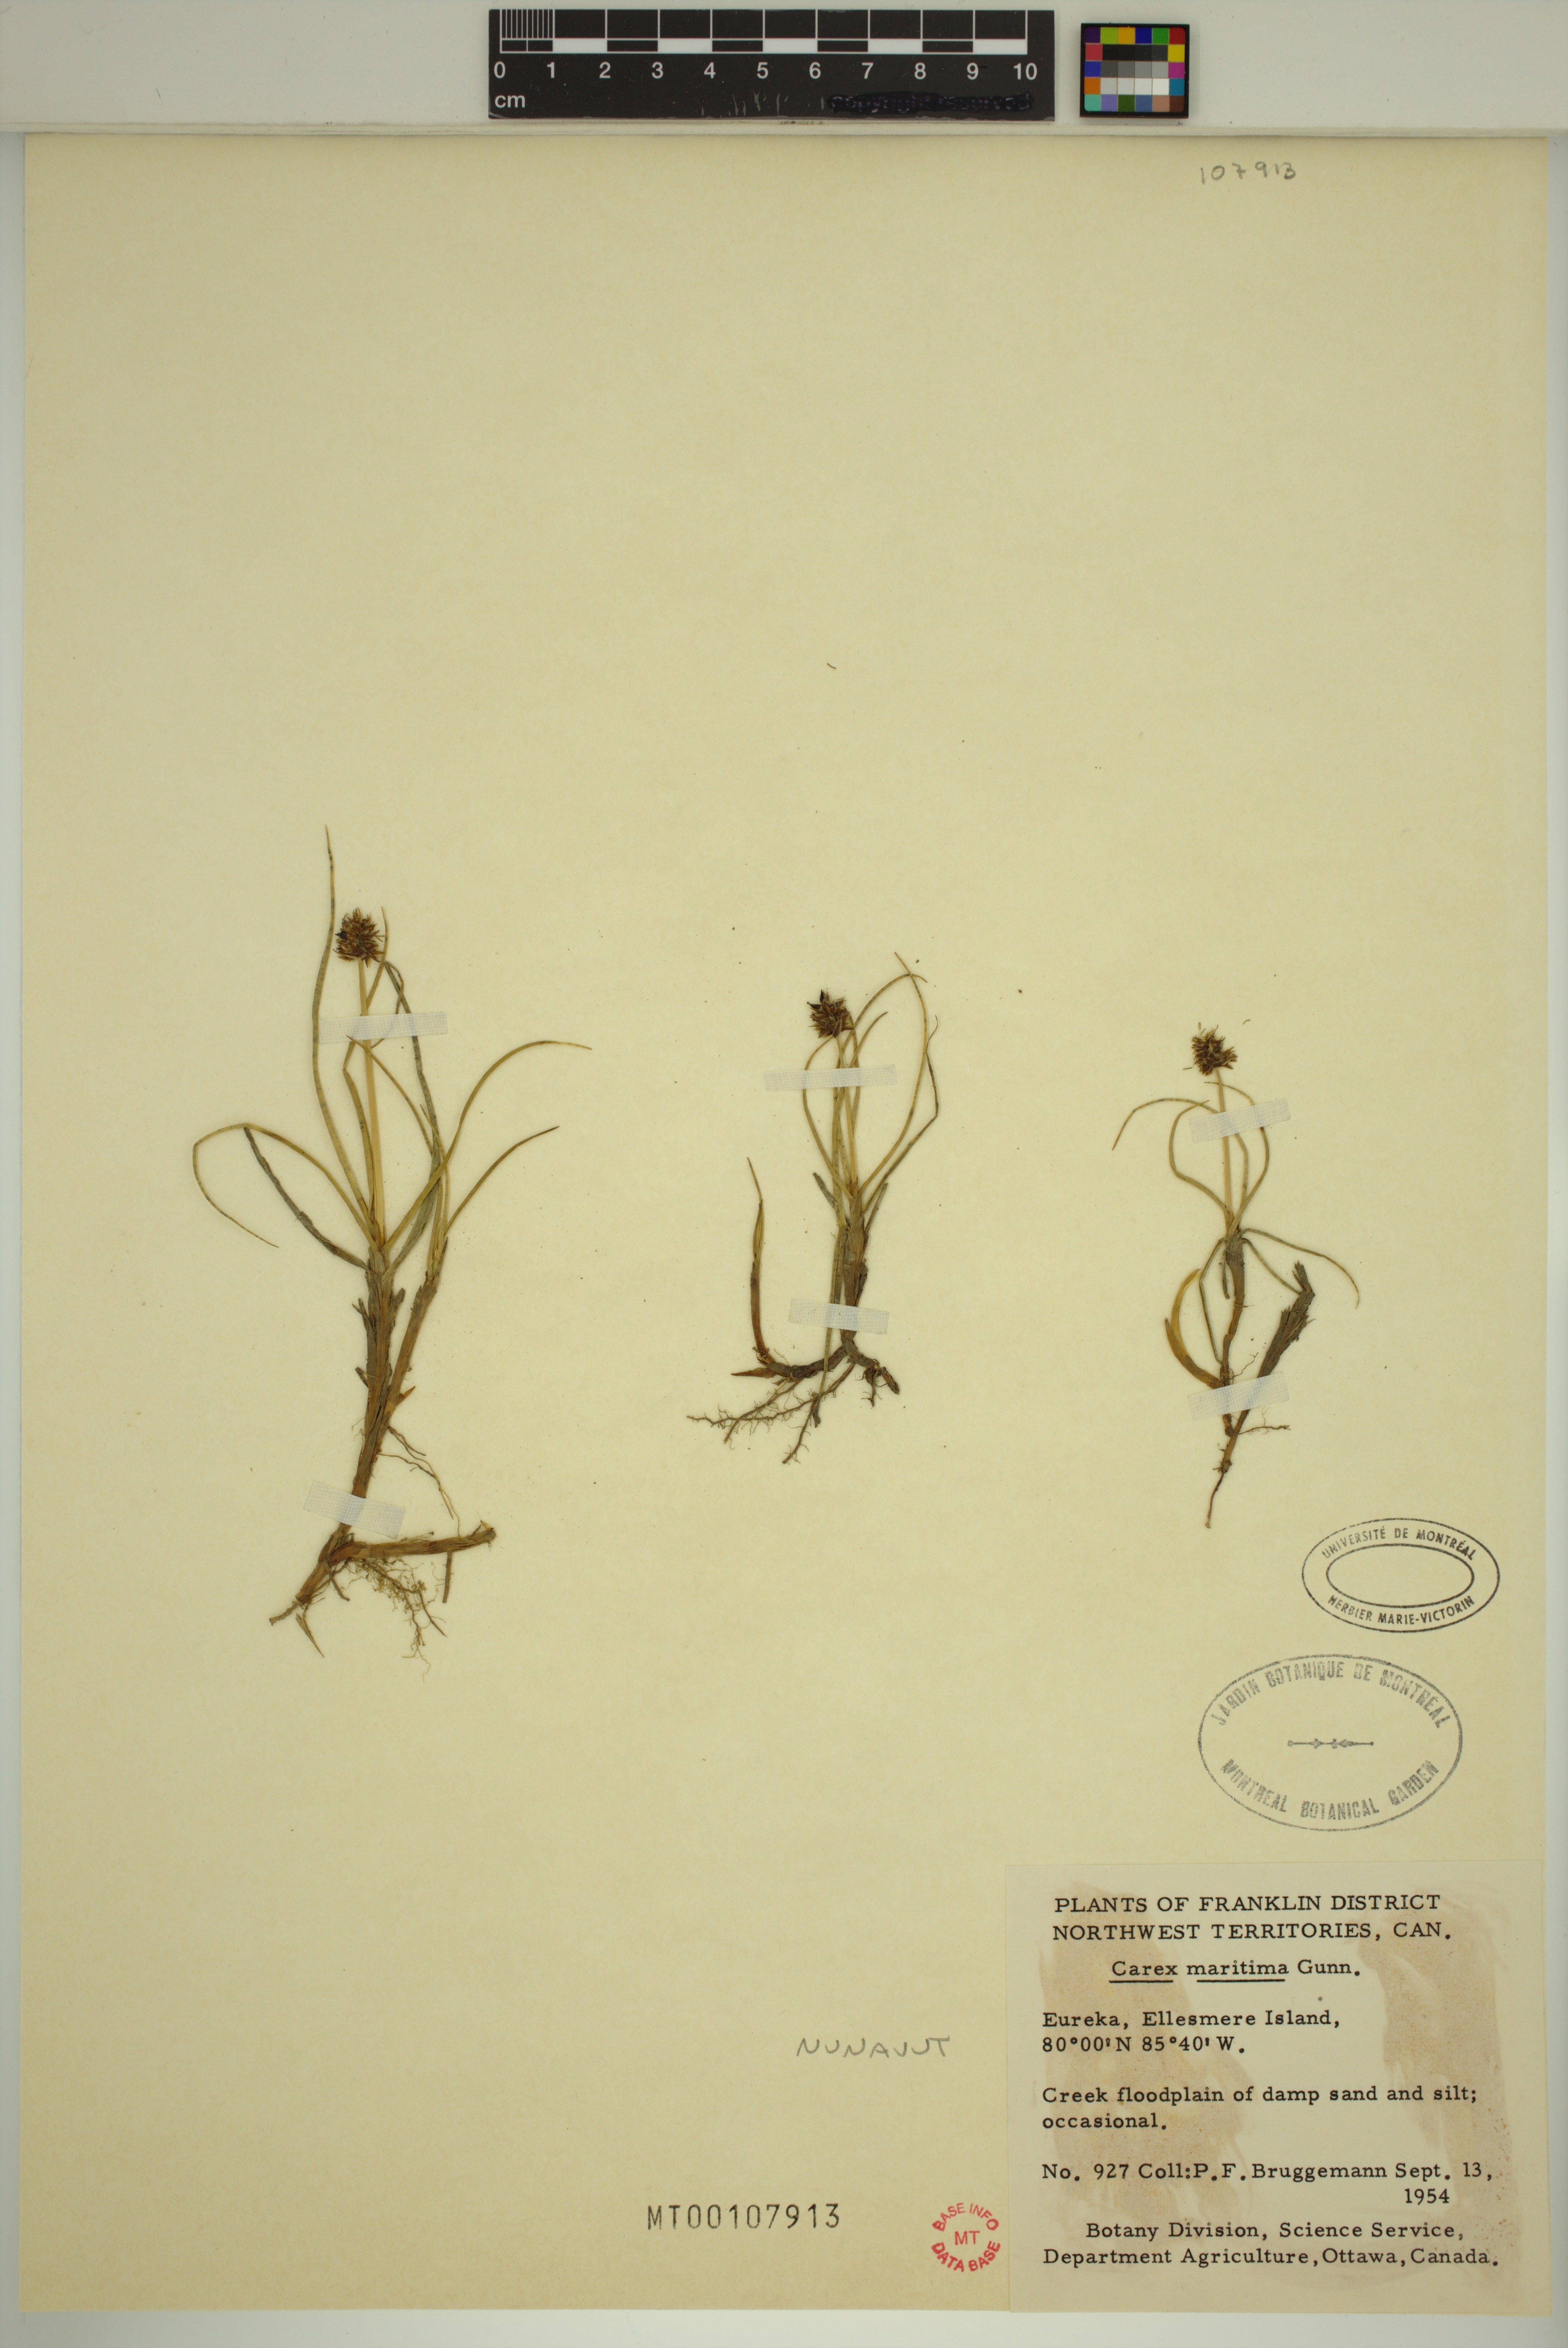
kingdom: Plantae
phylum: Tracheophyta
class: Liliopsida
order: Poales
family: Cyperaceae
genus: Carex
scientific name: Carex maritima
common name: Curved sedge
